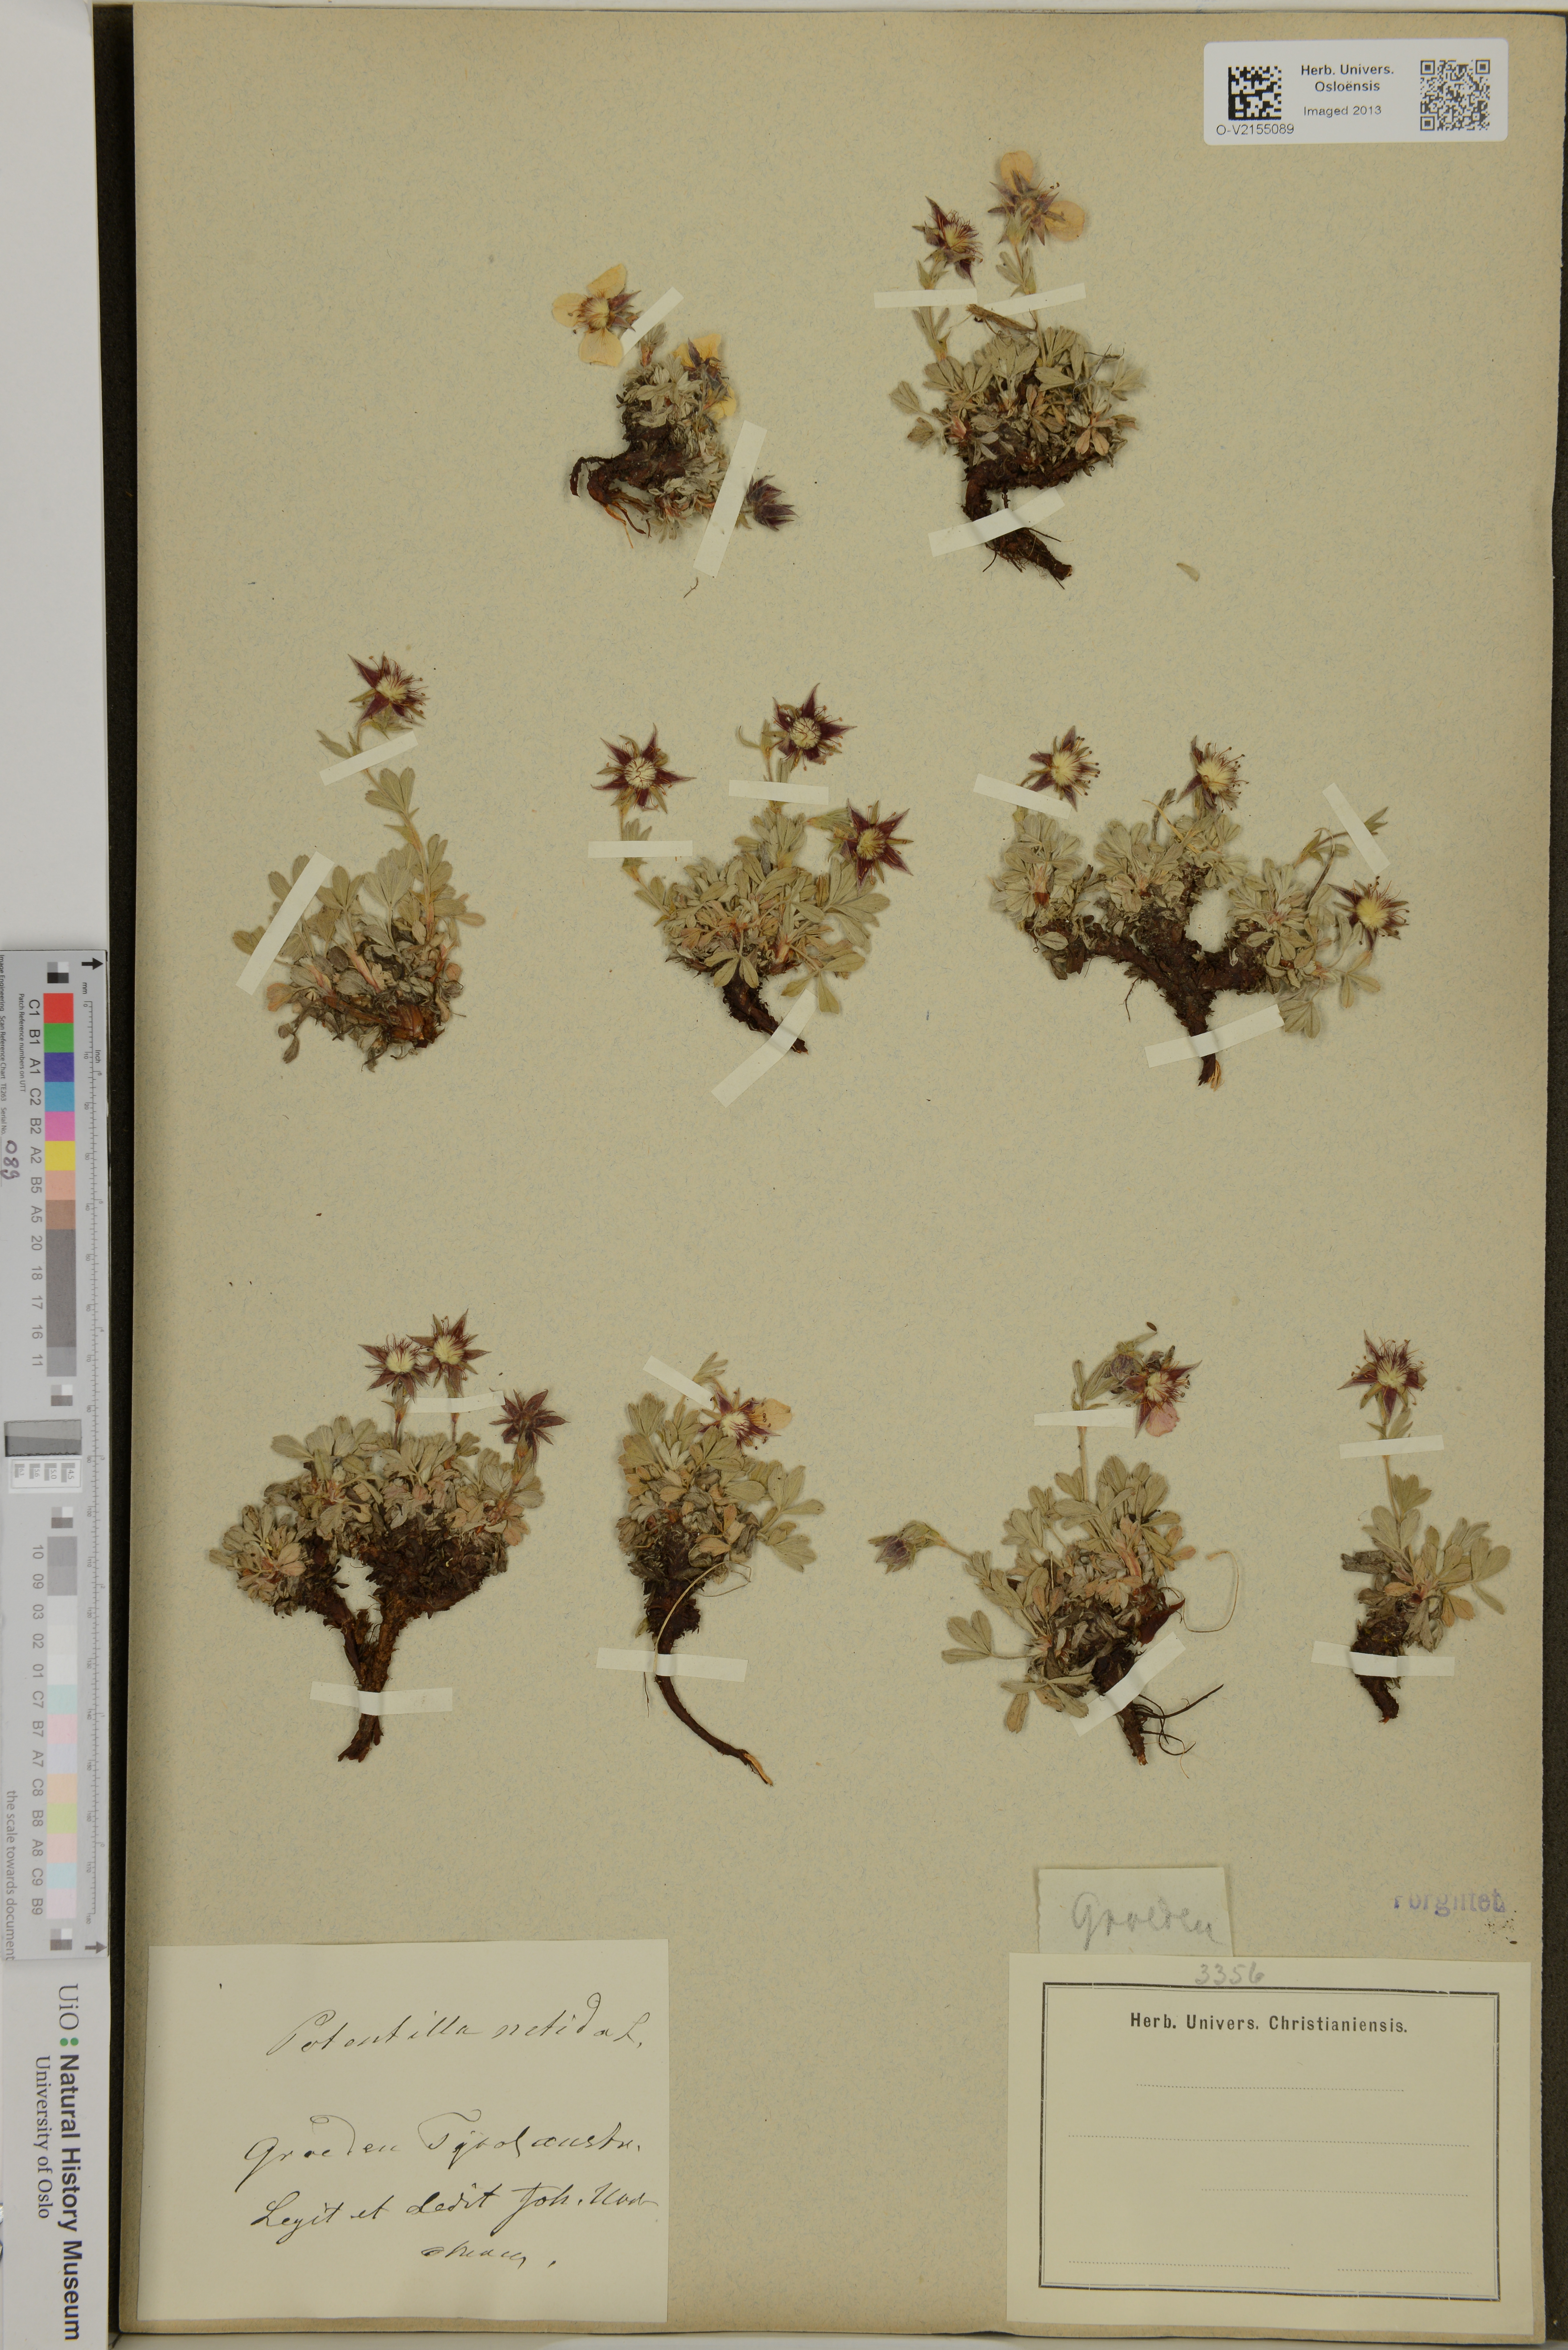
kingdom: Plantae
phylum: Tracheophyta
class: Magnoliopsida
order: Rosales
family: Rosaceae
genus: Potentilla
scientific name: Potentilla nitida
